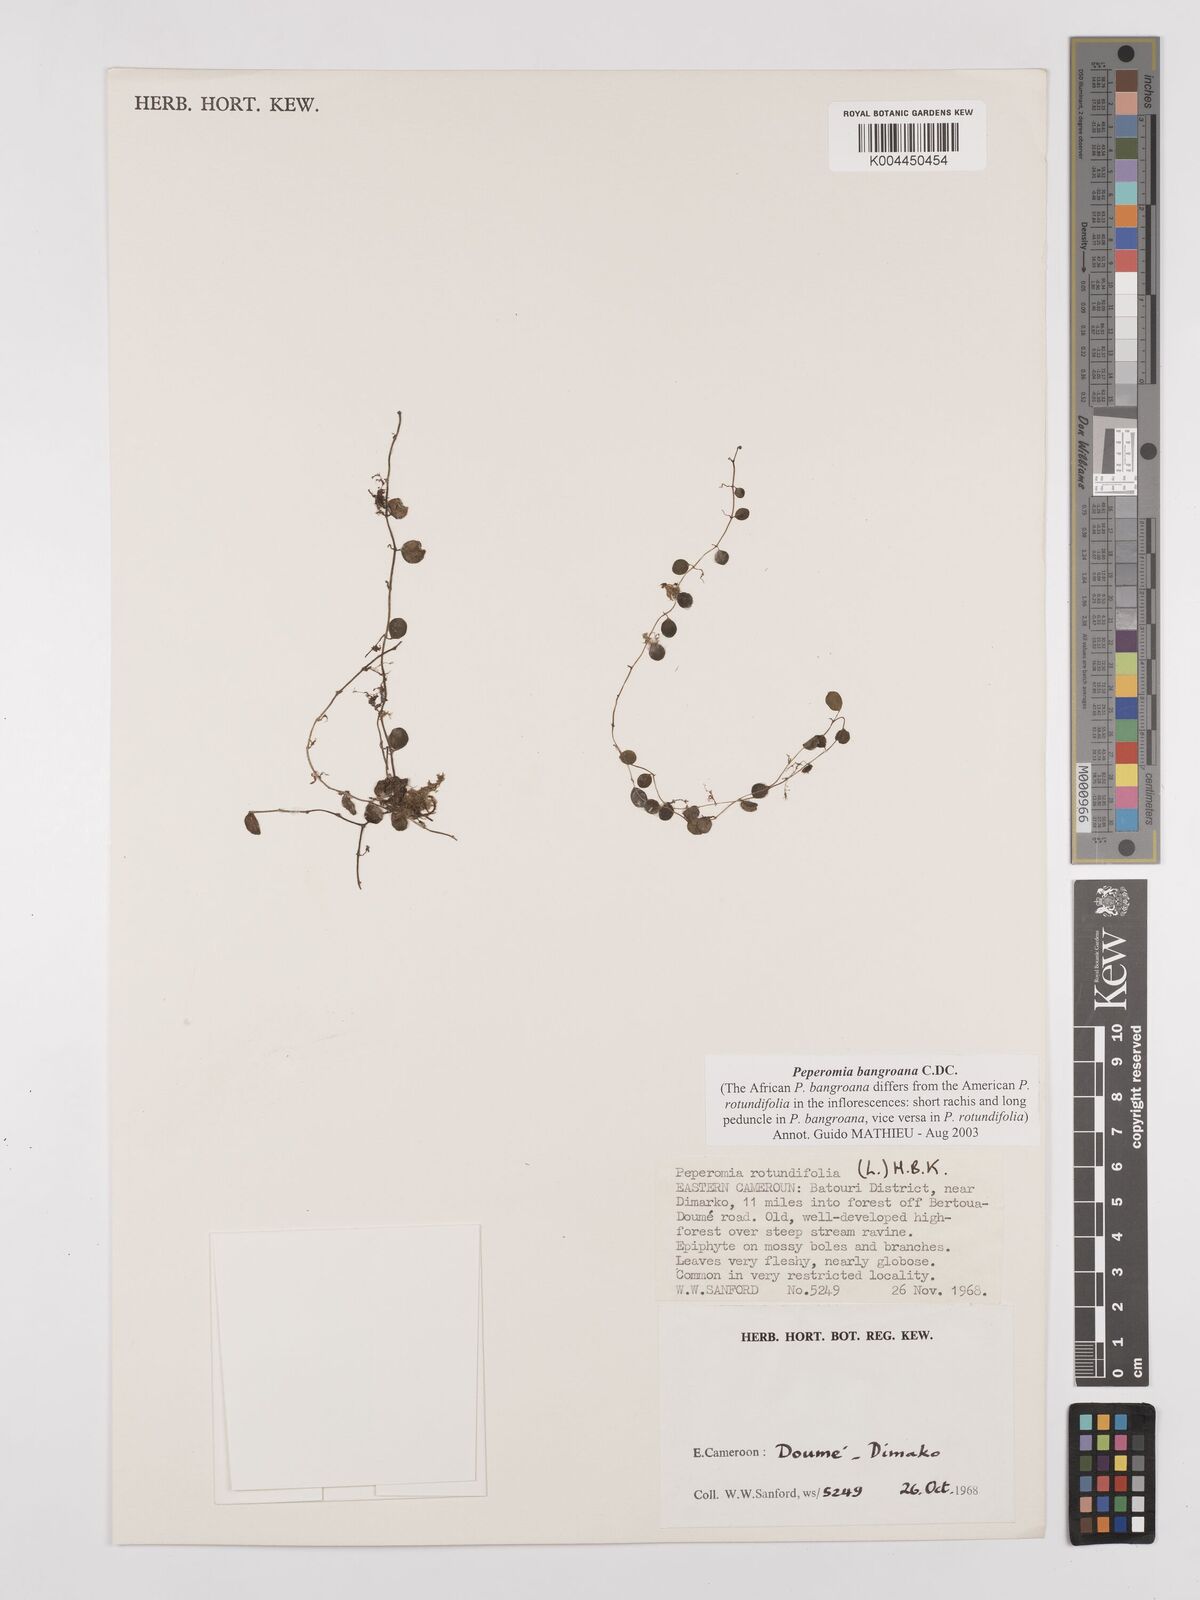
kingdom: Plantae
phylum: Tracheophyta
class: Magnoliopsida
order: Piperales
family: Piperaceae
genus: Peperomia
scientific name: Peperomia bangroana
